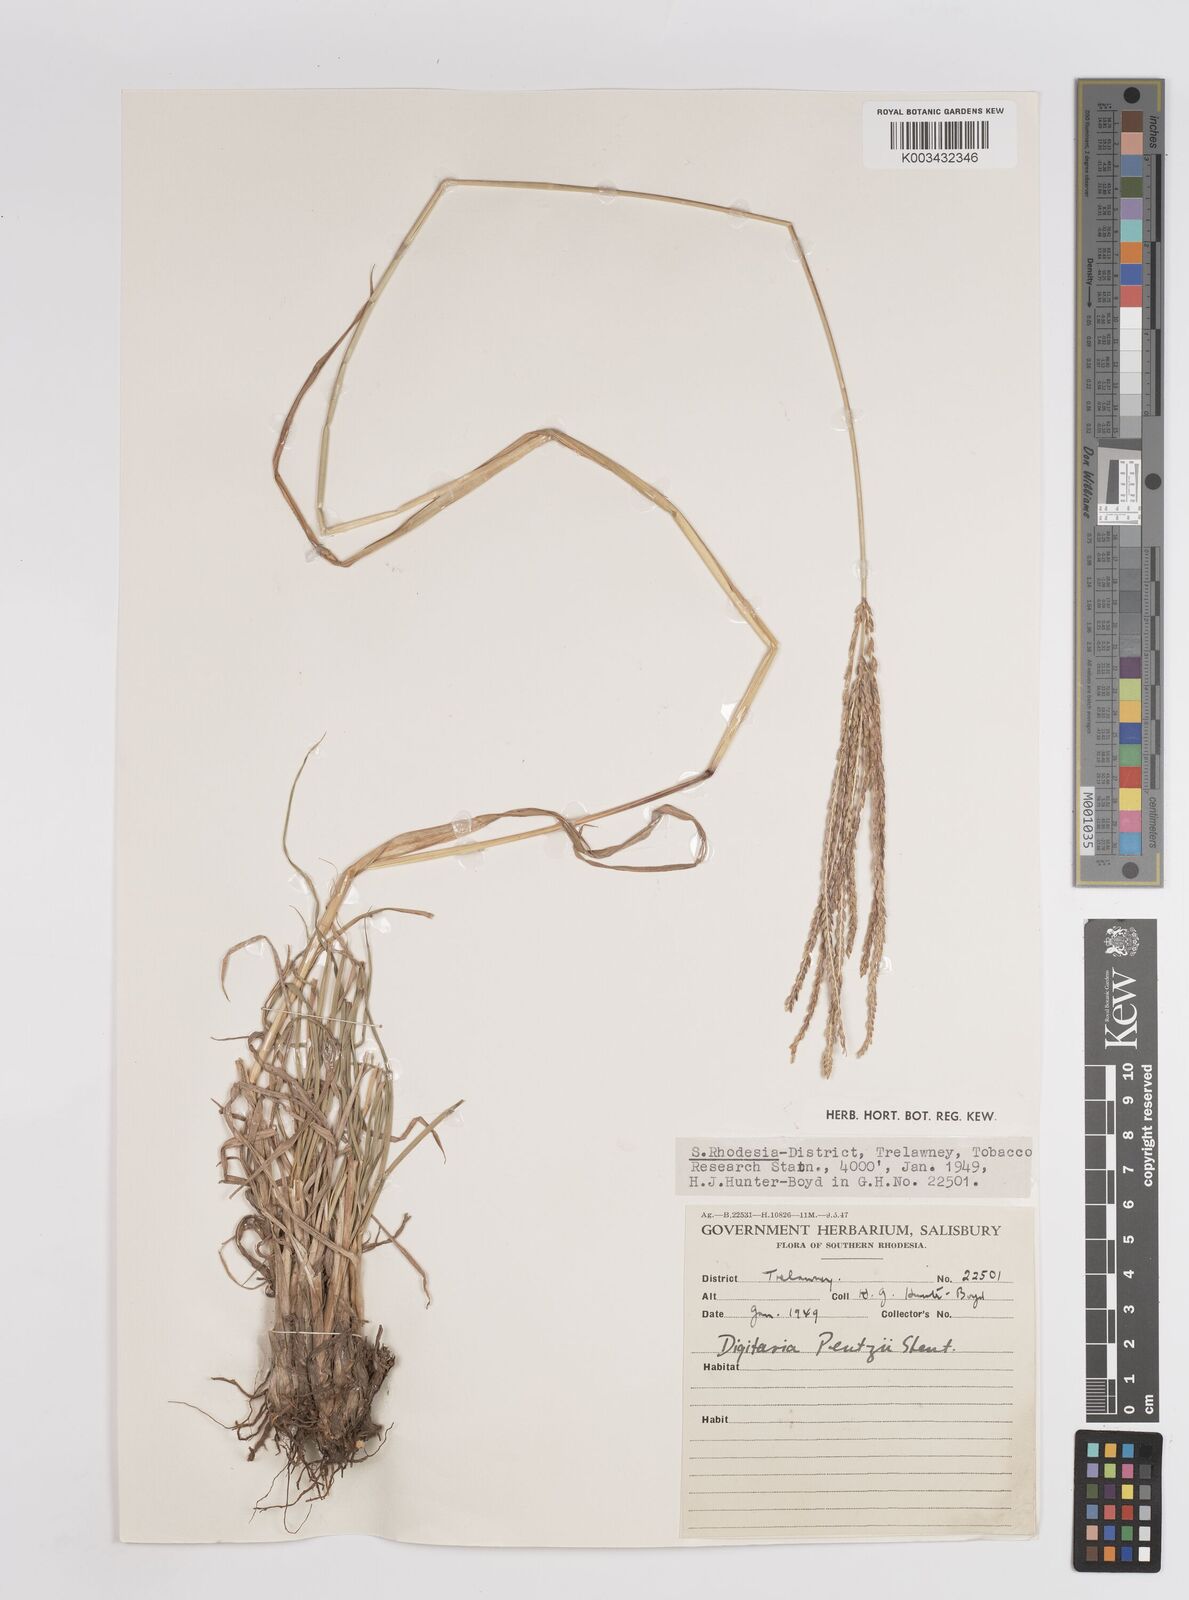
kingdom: Plantae
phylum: Tracheophyta
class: Liliopsida
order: Poales
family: Poaceae
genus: Digitaria
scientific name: Digitaria eriantha
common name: Digitgrass
